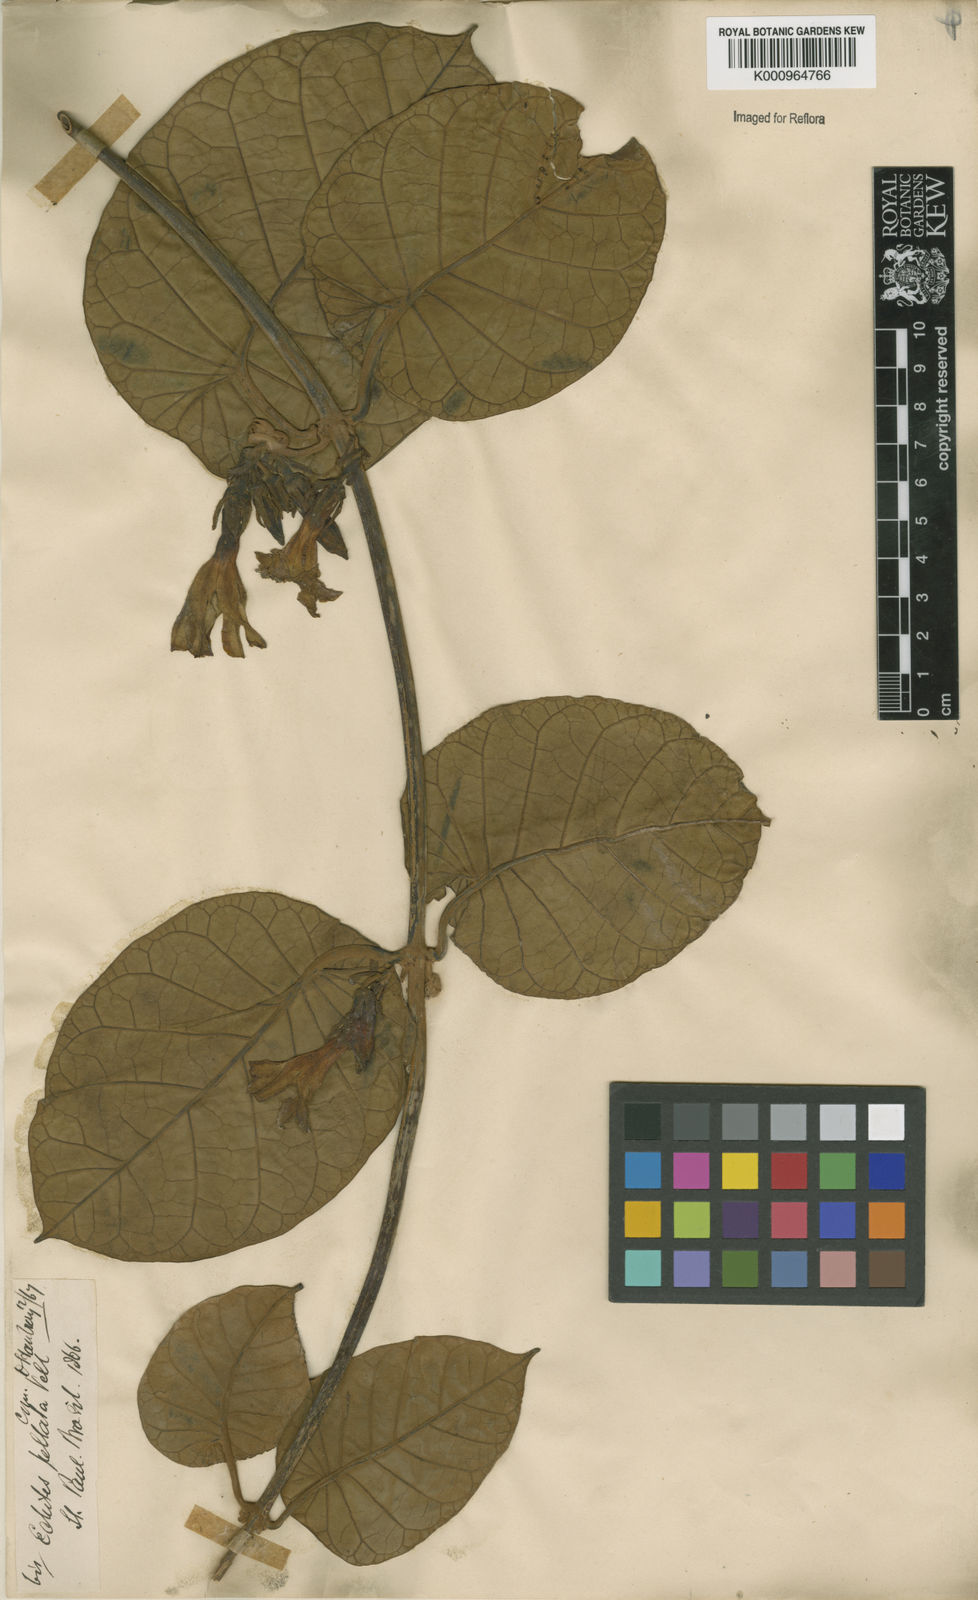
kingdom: Plantae
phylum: Tracheophyta
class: Magnoliopsida
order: Gentianales
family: Apocynaceae
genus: Macropharynx
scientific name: Macropharynx peltata
